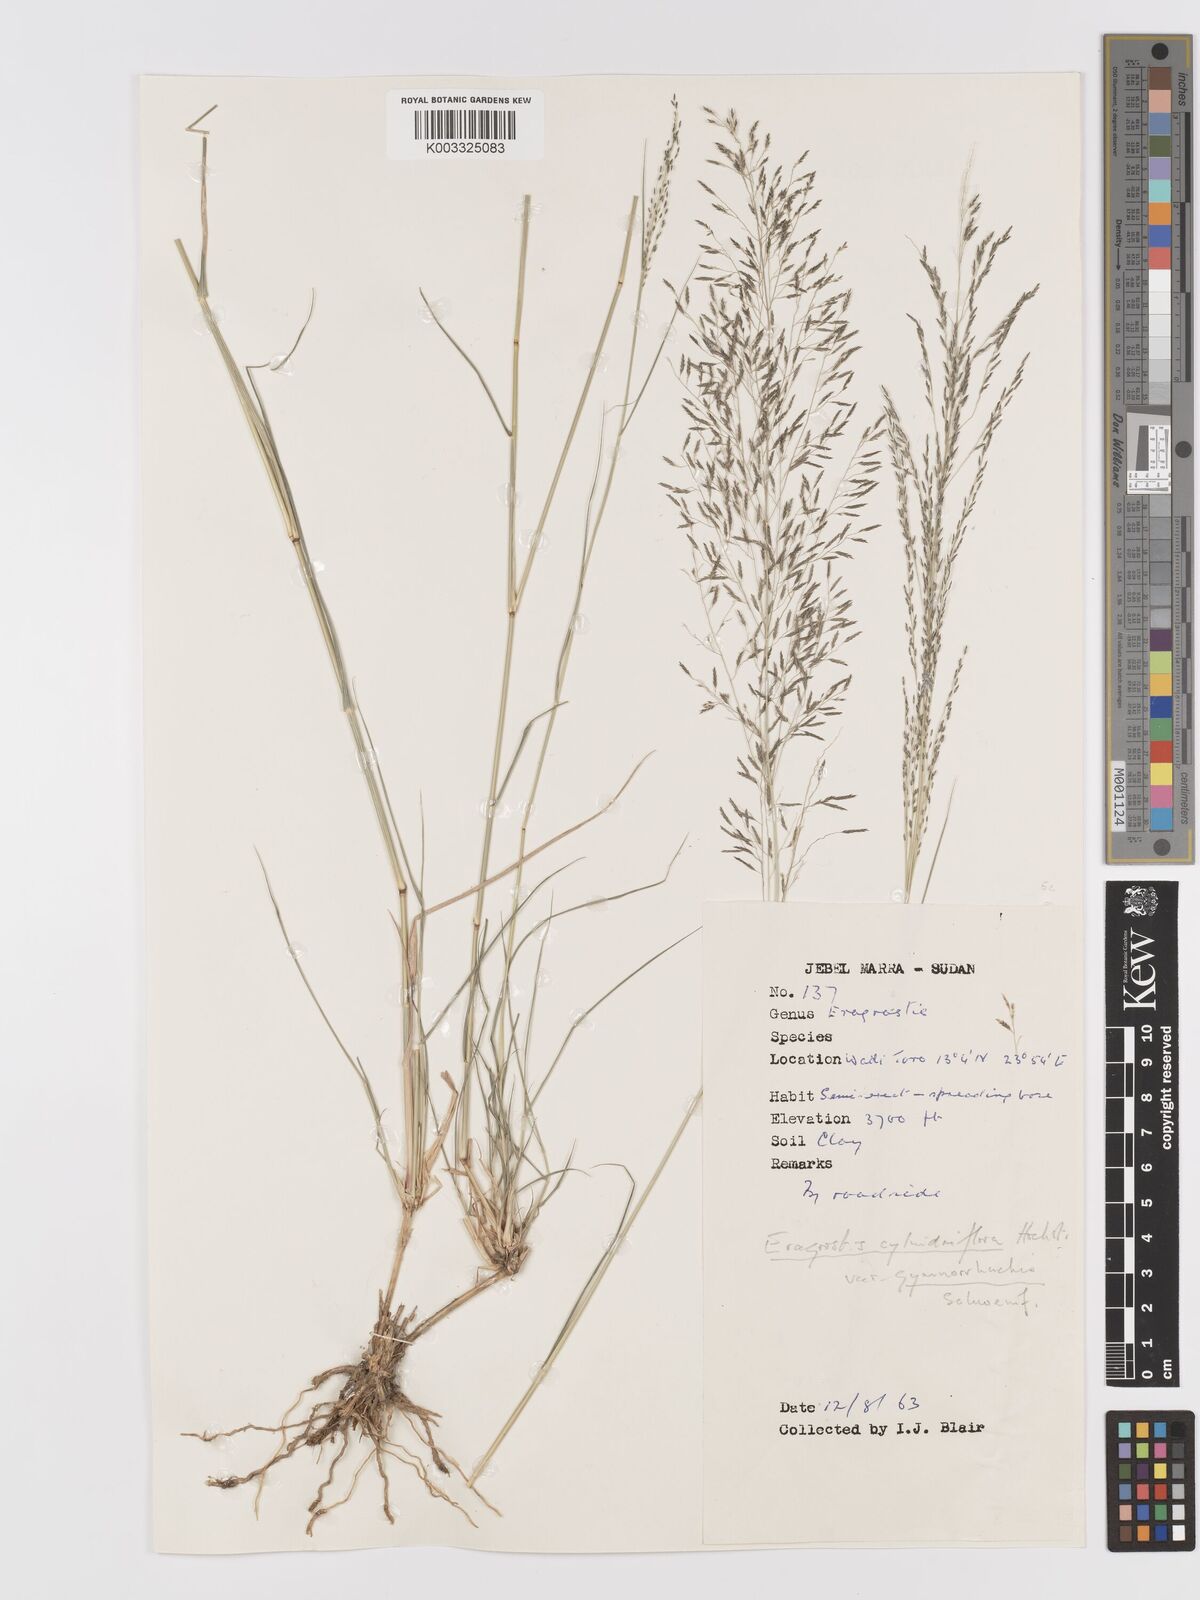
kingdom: Plantae
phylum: Tracheophyta
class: Liliopsida
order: Poales
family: Poaceae
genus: Eragrostis
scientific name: Eragrostis cylindriflora
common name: Cylinderflower lovegrass
